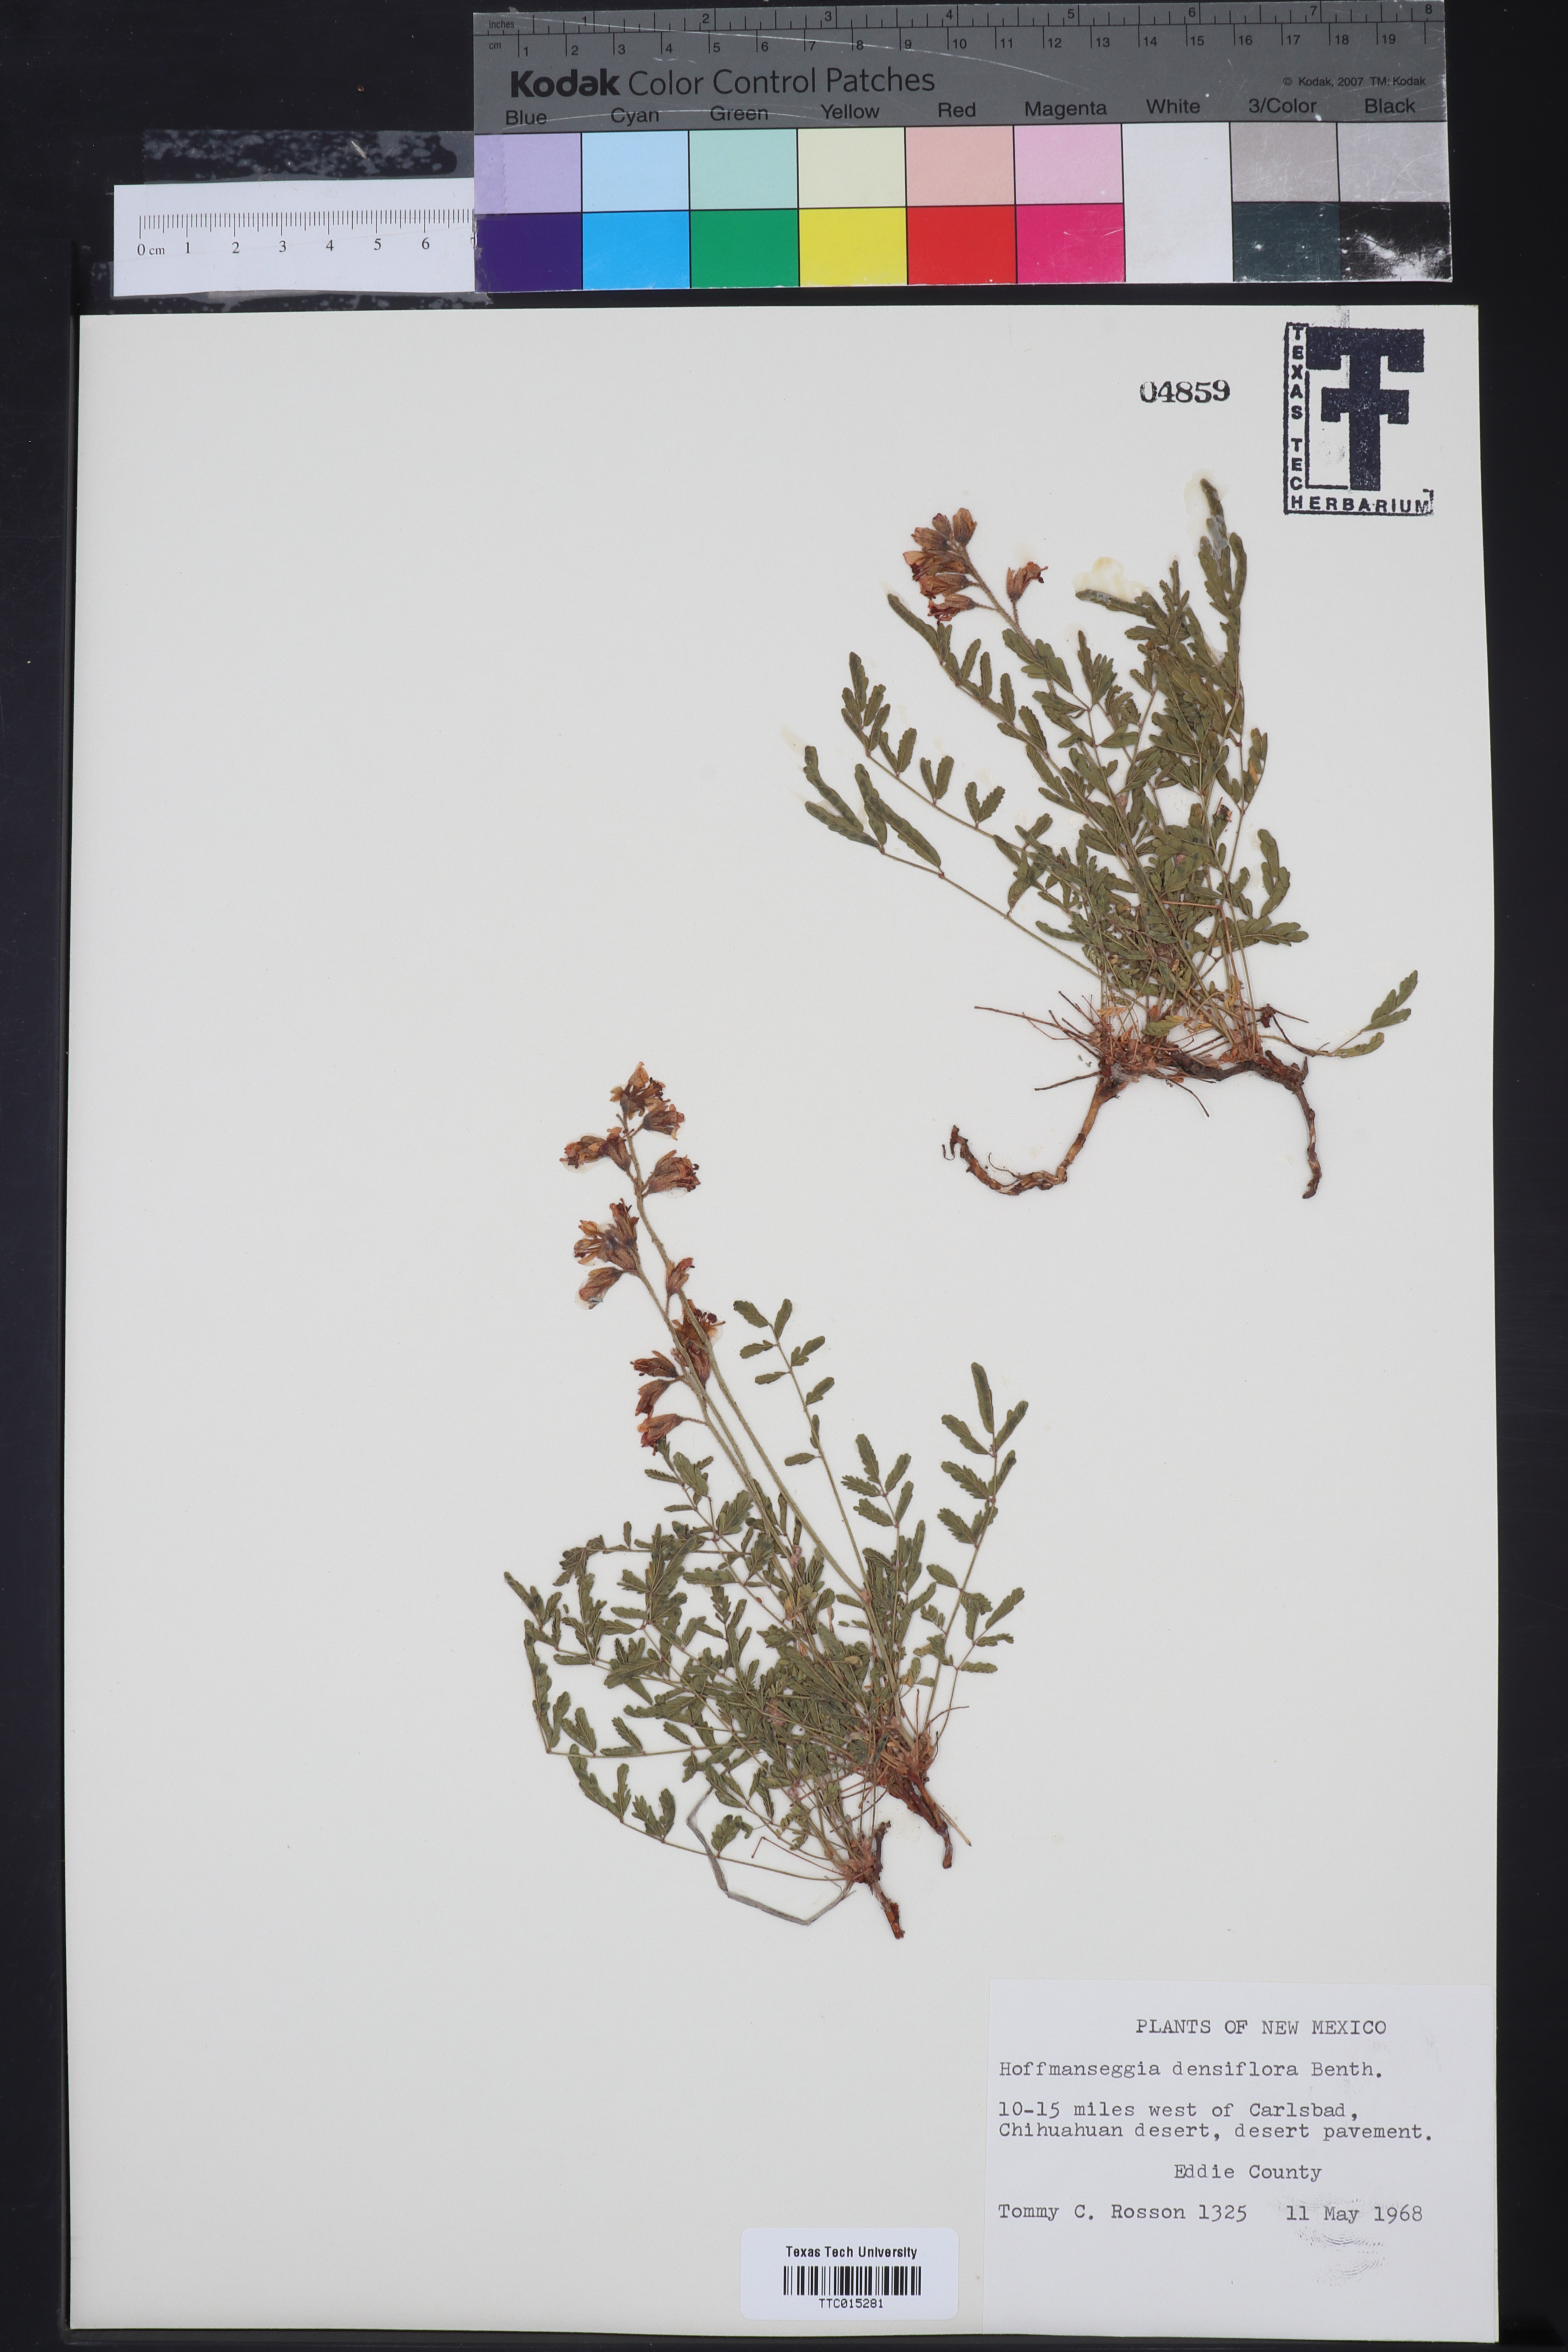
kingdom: Plantae
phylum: Tracheophyta
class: Magnoliopsida
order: Fabales
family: Fabaceae
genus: Hoffmannseggia
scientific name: Hoffmannseggia glauca
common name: Pignut
